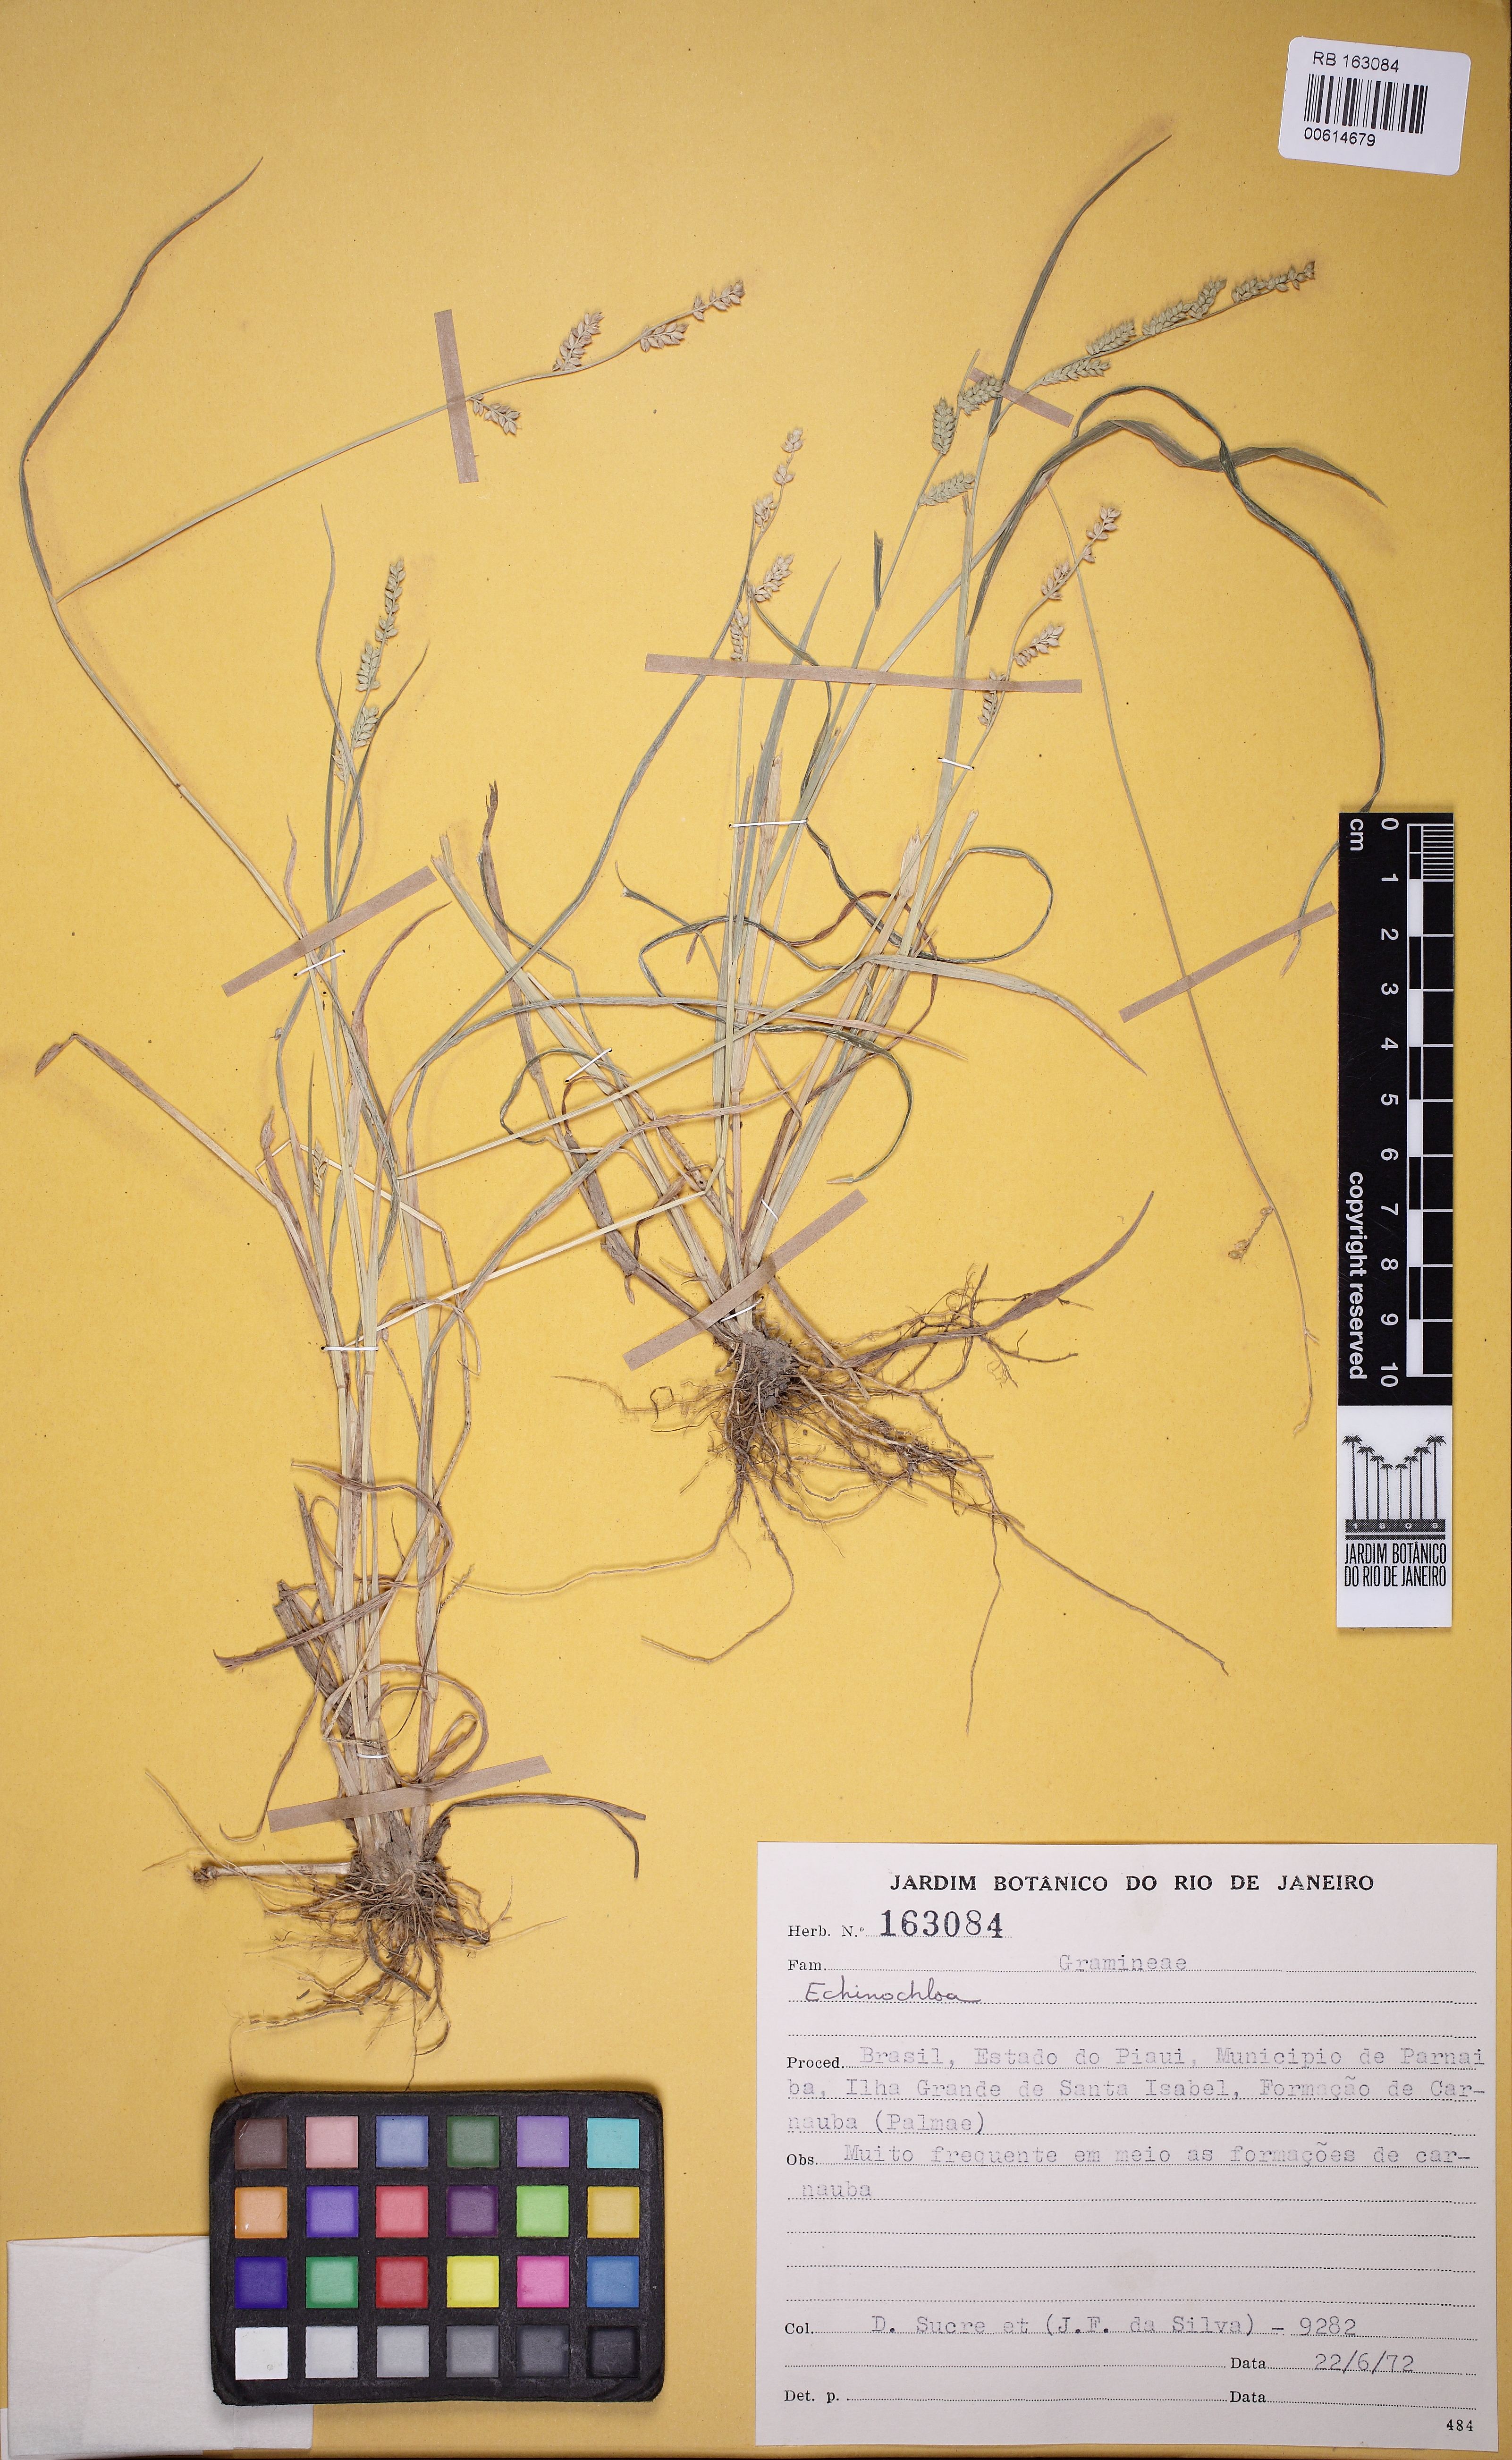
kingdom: Plantae
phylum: Tracheophyta
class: Liliopsida
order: Poales
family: Poaceae
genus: Echinochloa
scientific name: Echinochloa
